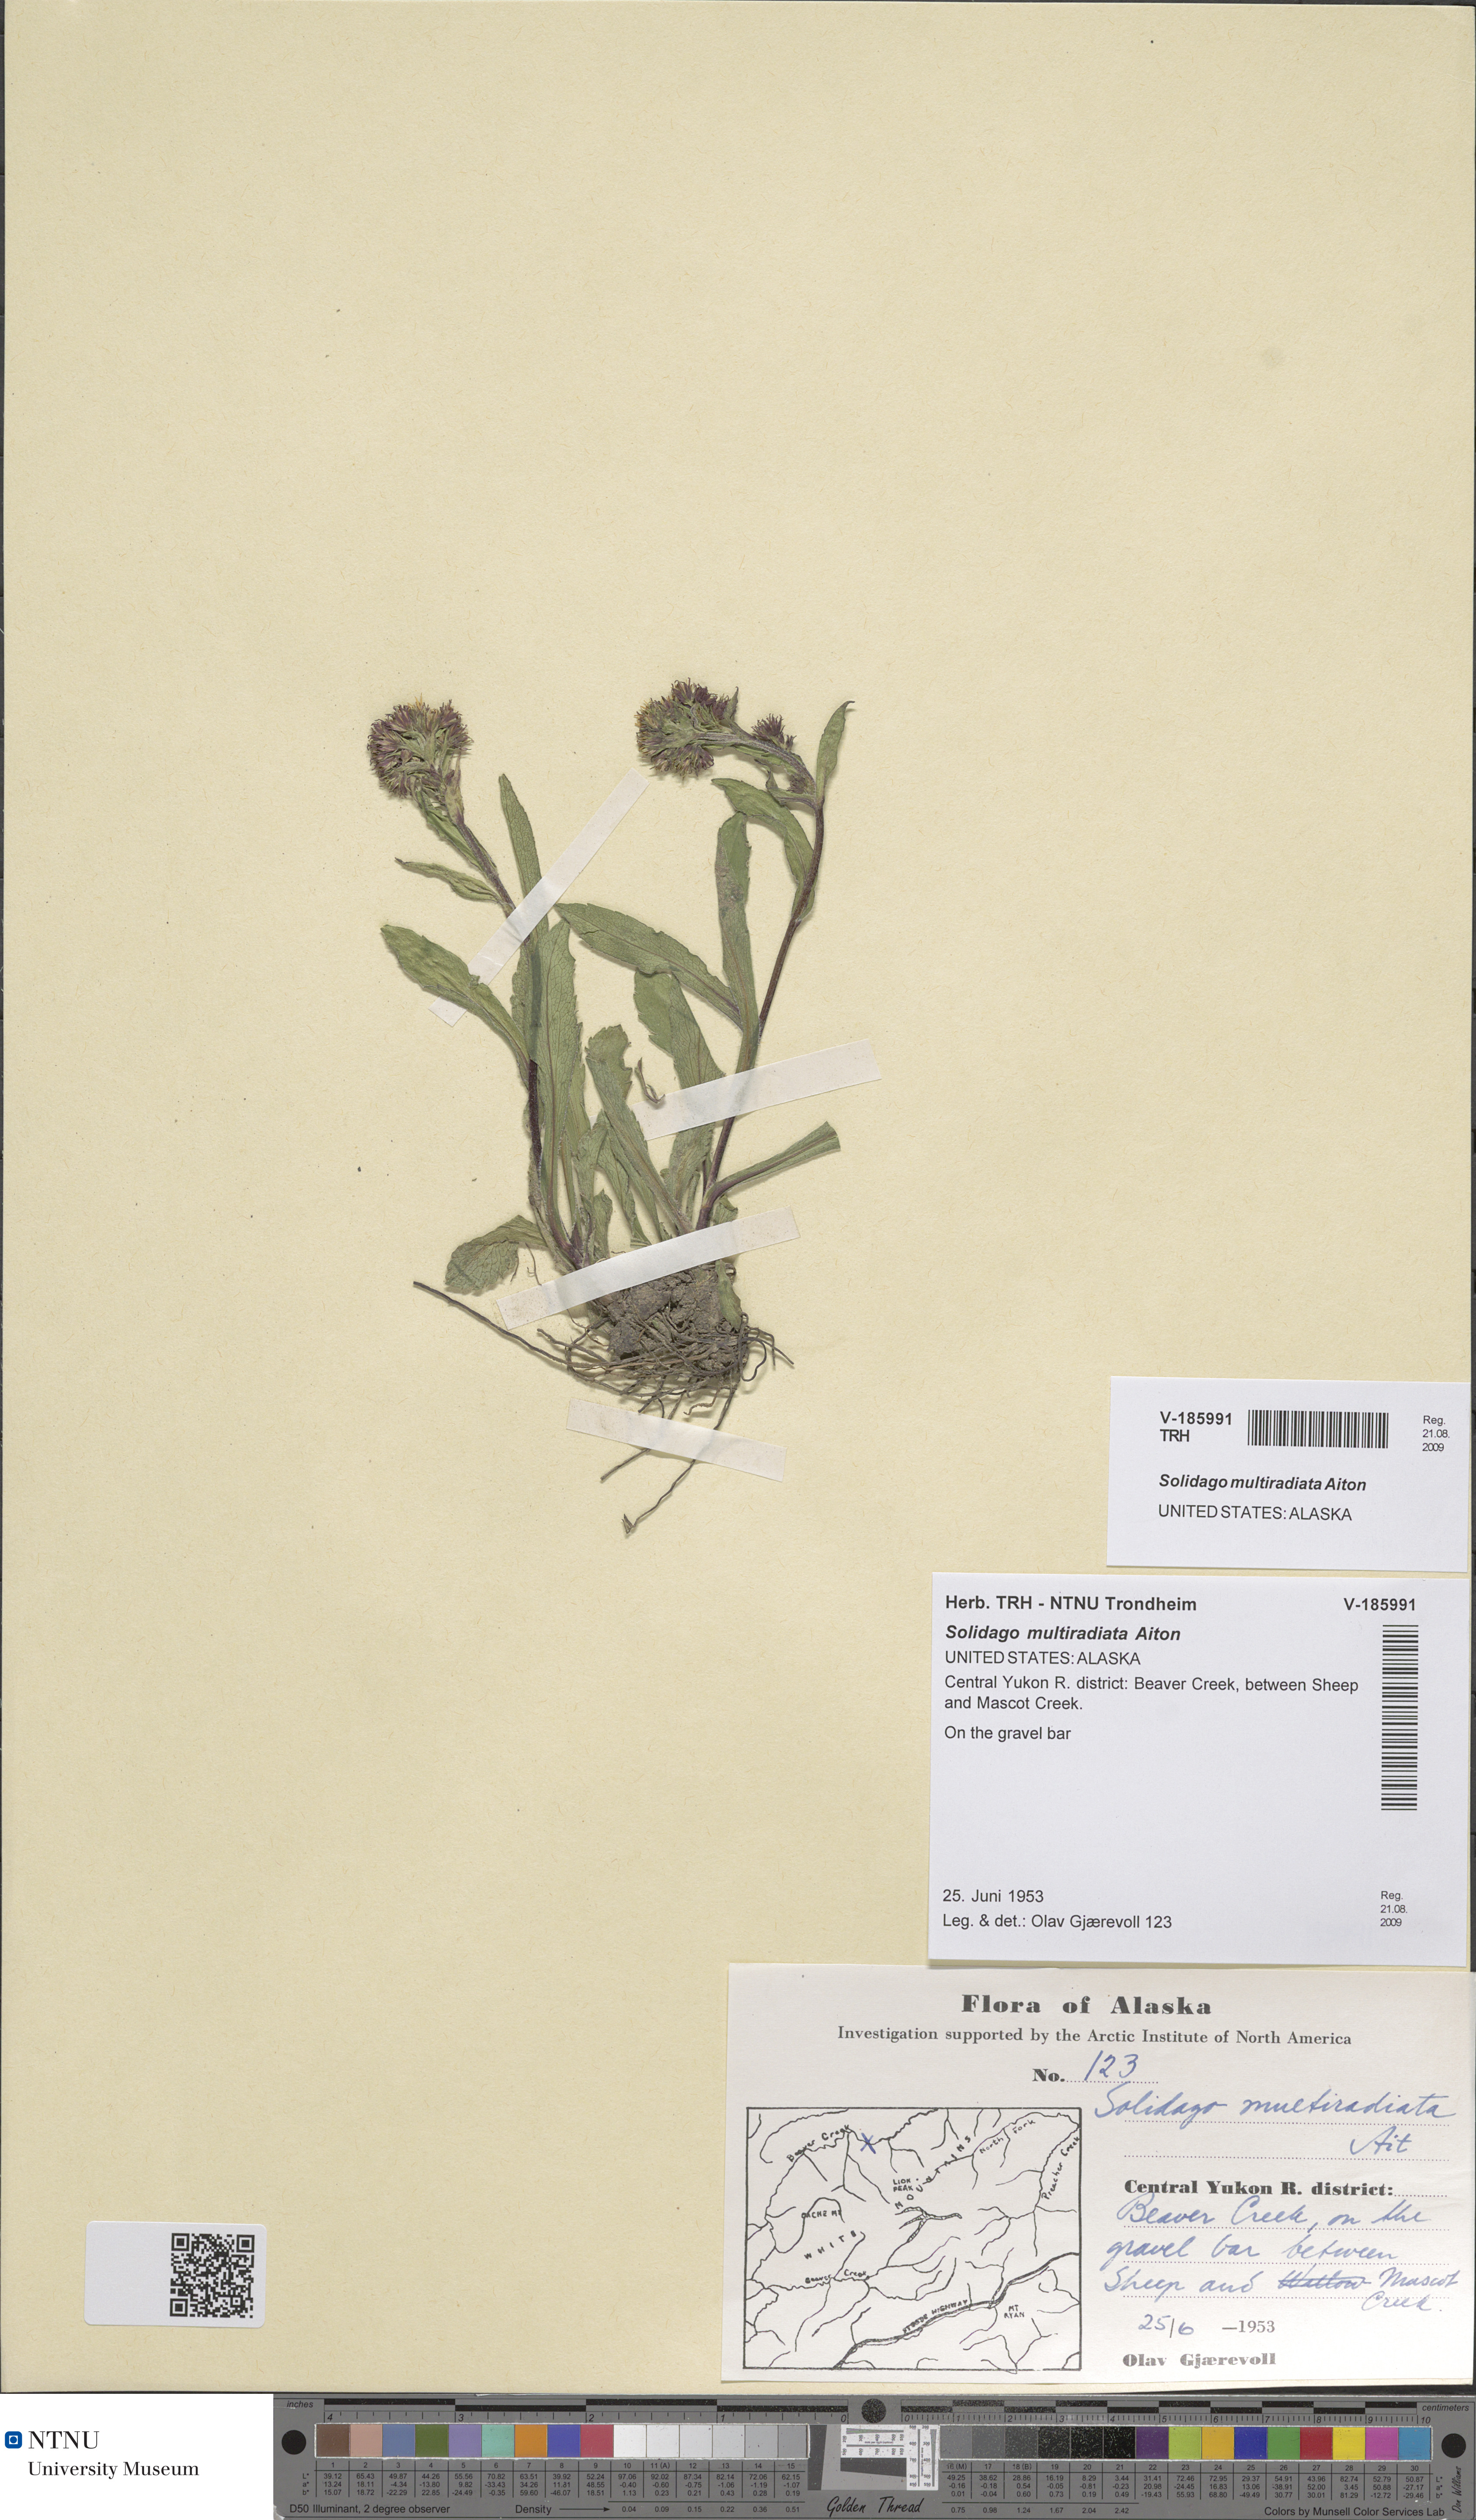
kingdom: Plantae
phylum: Tracheophyta
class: Magnoliopsida
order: Asterales
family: Asteraceae
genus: Solidago
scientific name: Solidago multiradiata
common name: Northern goldenrod
